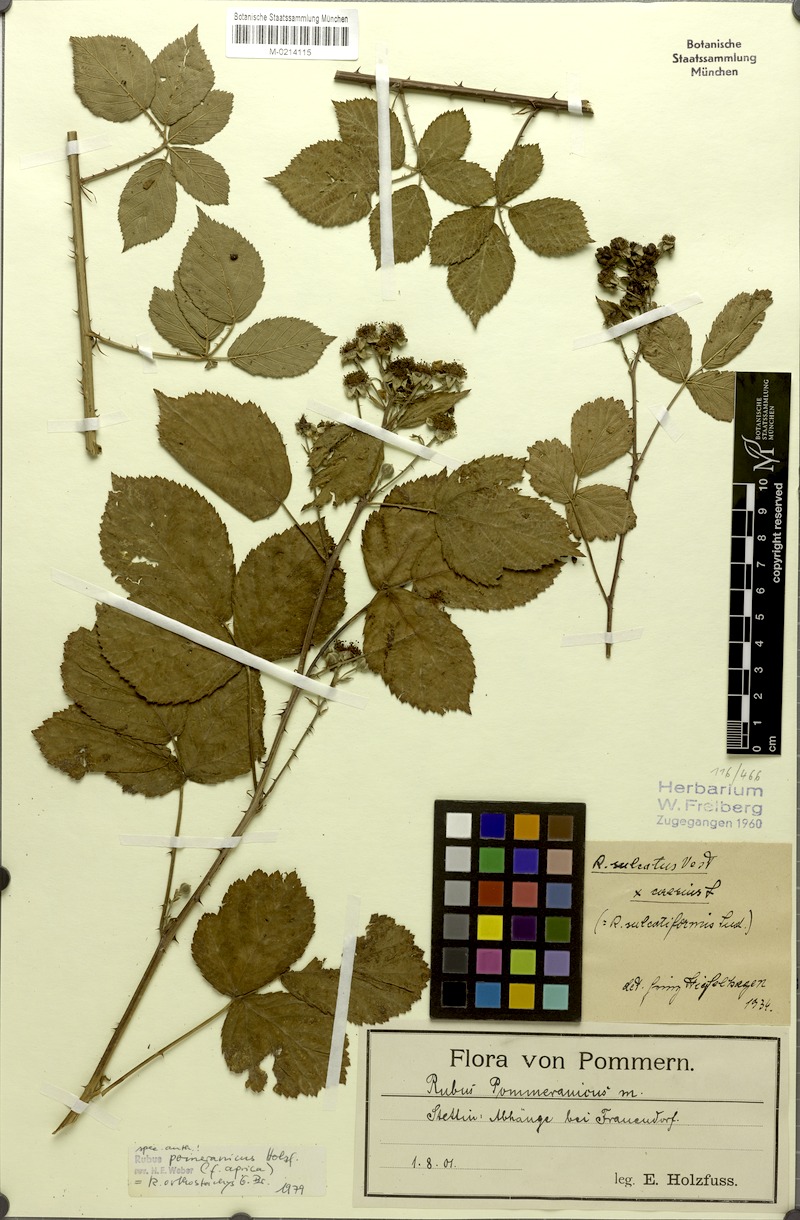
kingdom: Plantae
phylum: Tracheophyta
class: Magnoliopsida
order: Rosales
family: Rosaceae
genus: Rubus
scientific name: Rubus orthostachys
